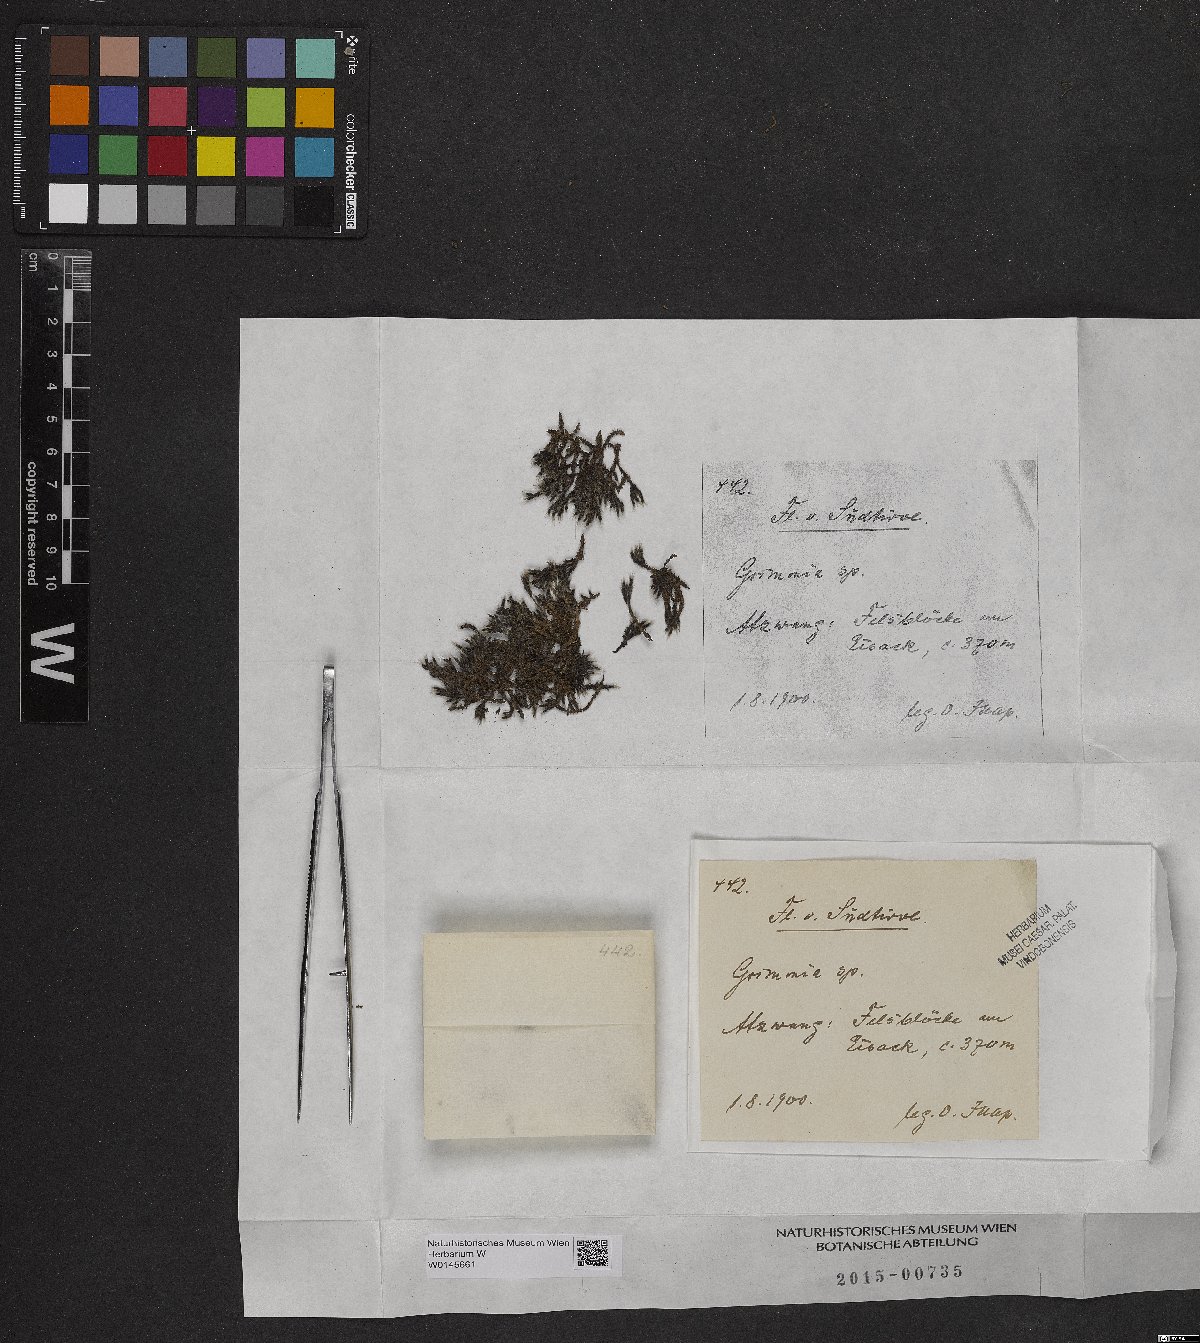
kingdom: Plantae
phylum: Bryophyta
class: Bryopsida
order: Grimmiales
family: Grimmiaceae
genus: Grimmia
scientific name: Grimmia
